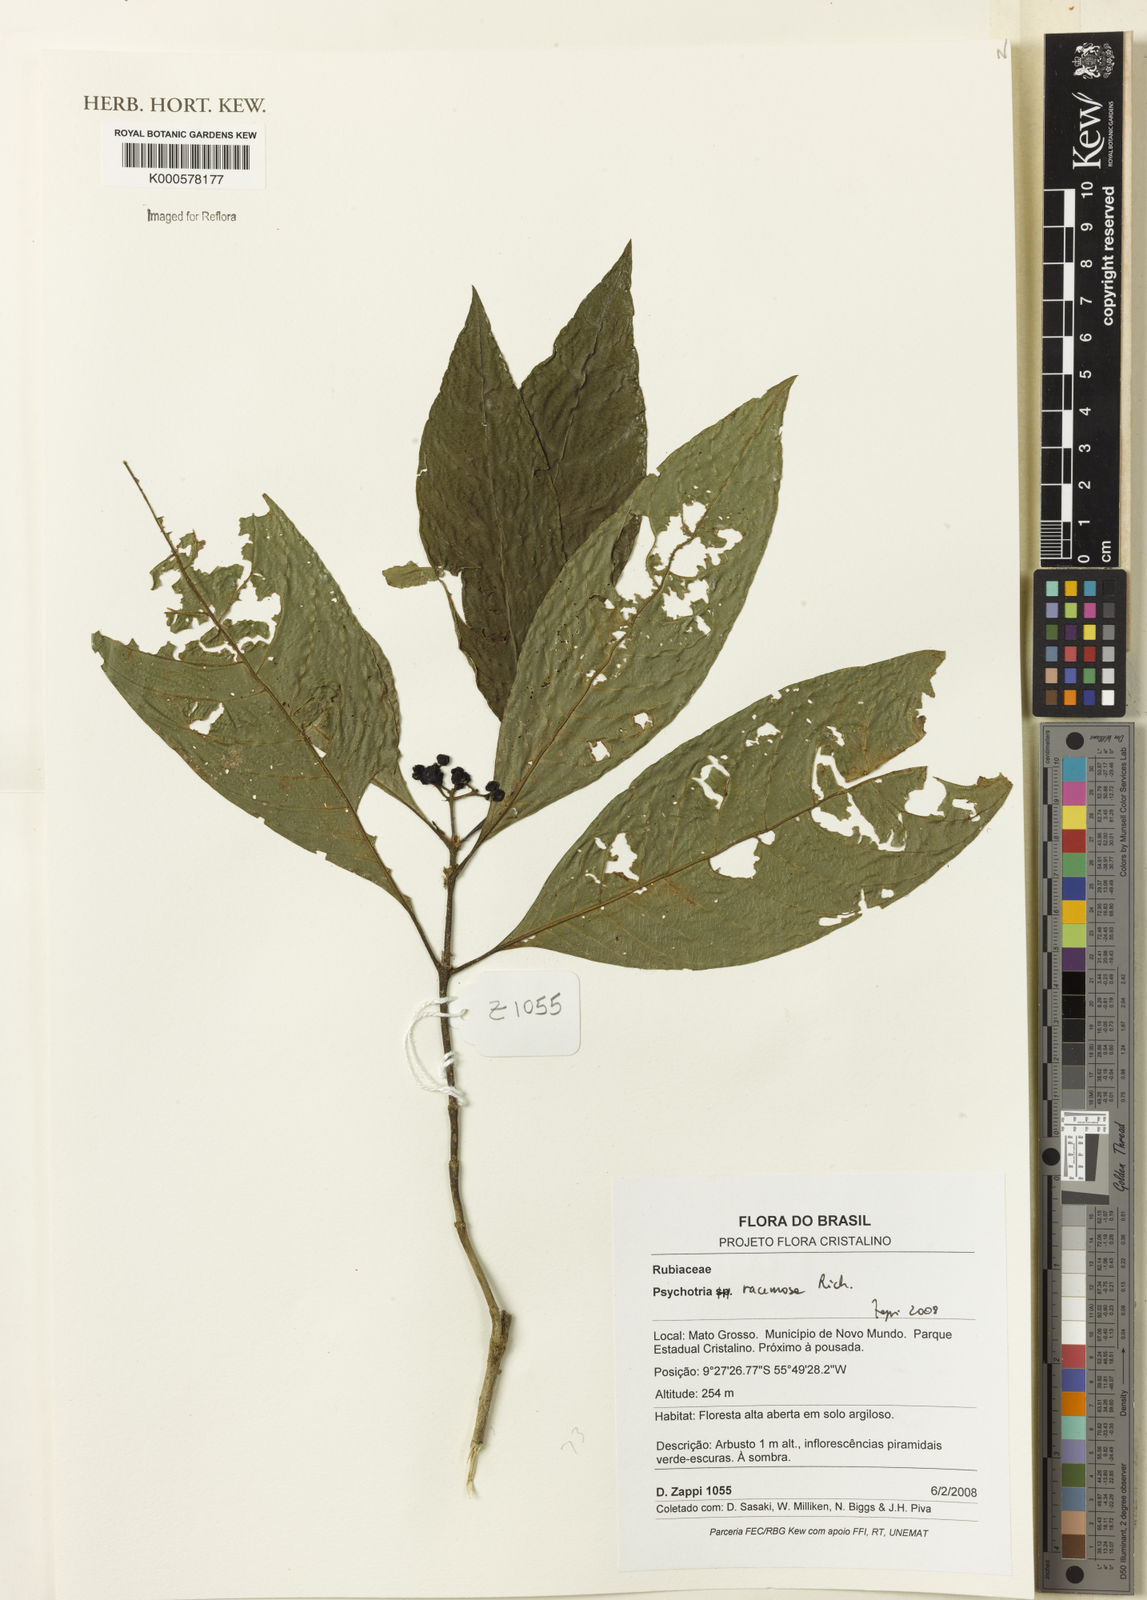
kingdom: Plantae
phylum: Tracheophyta
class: Magnoliopsida
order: Gentianales
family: Rubiaceae
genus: Palicourea
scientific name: Palicourea racemosa
